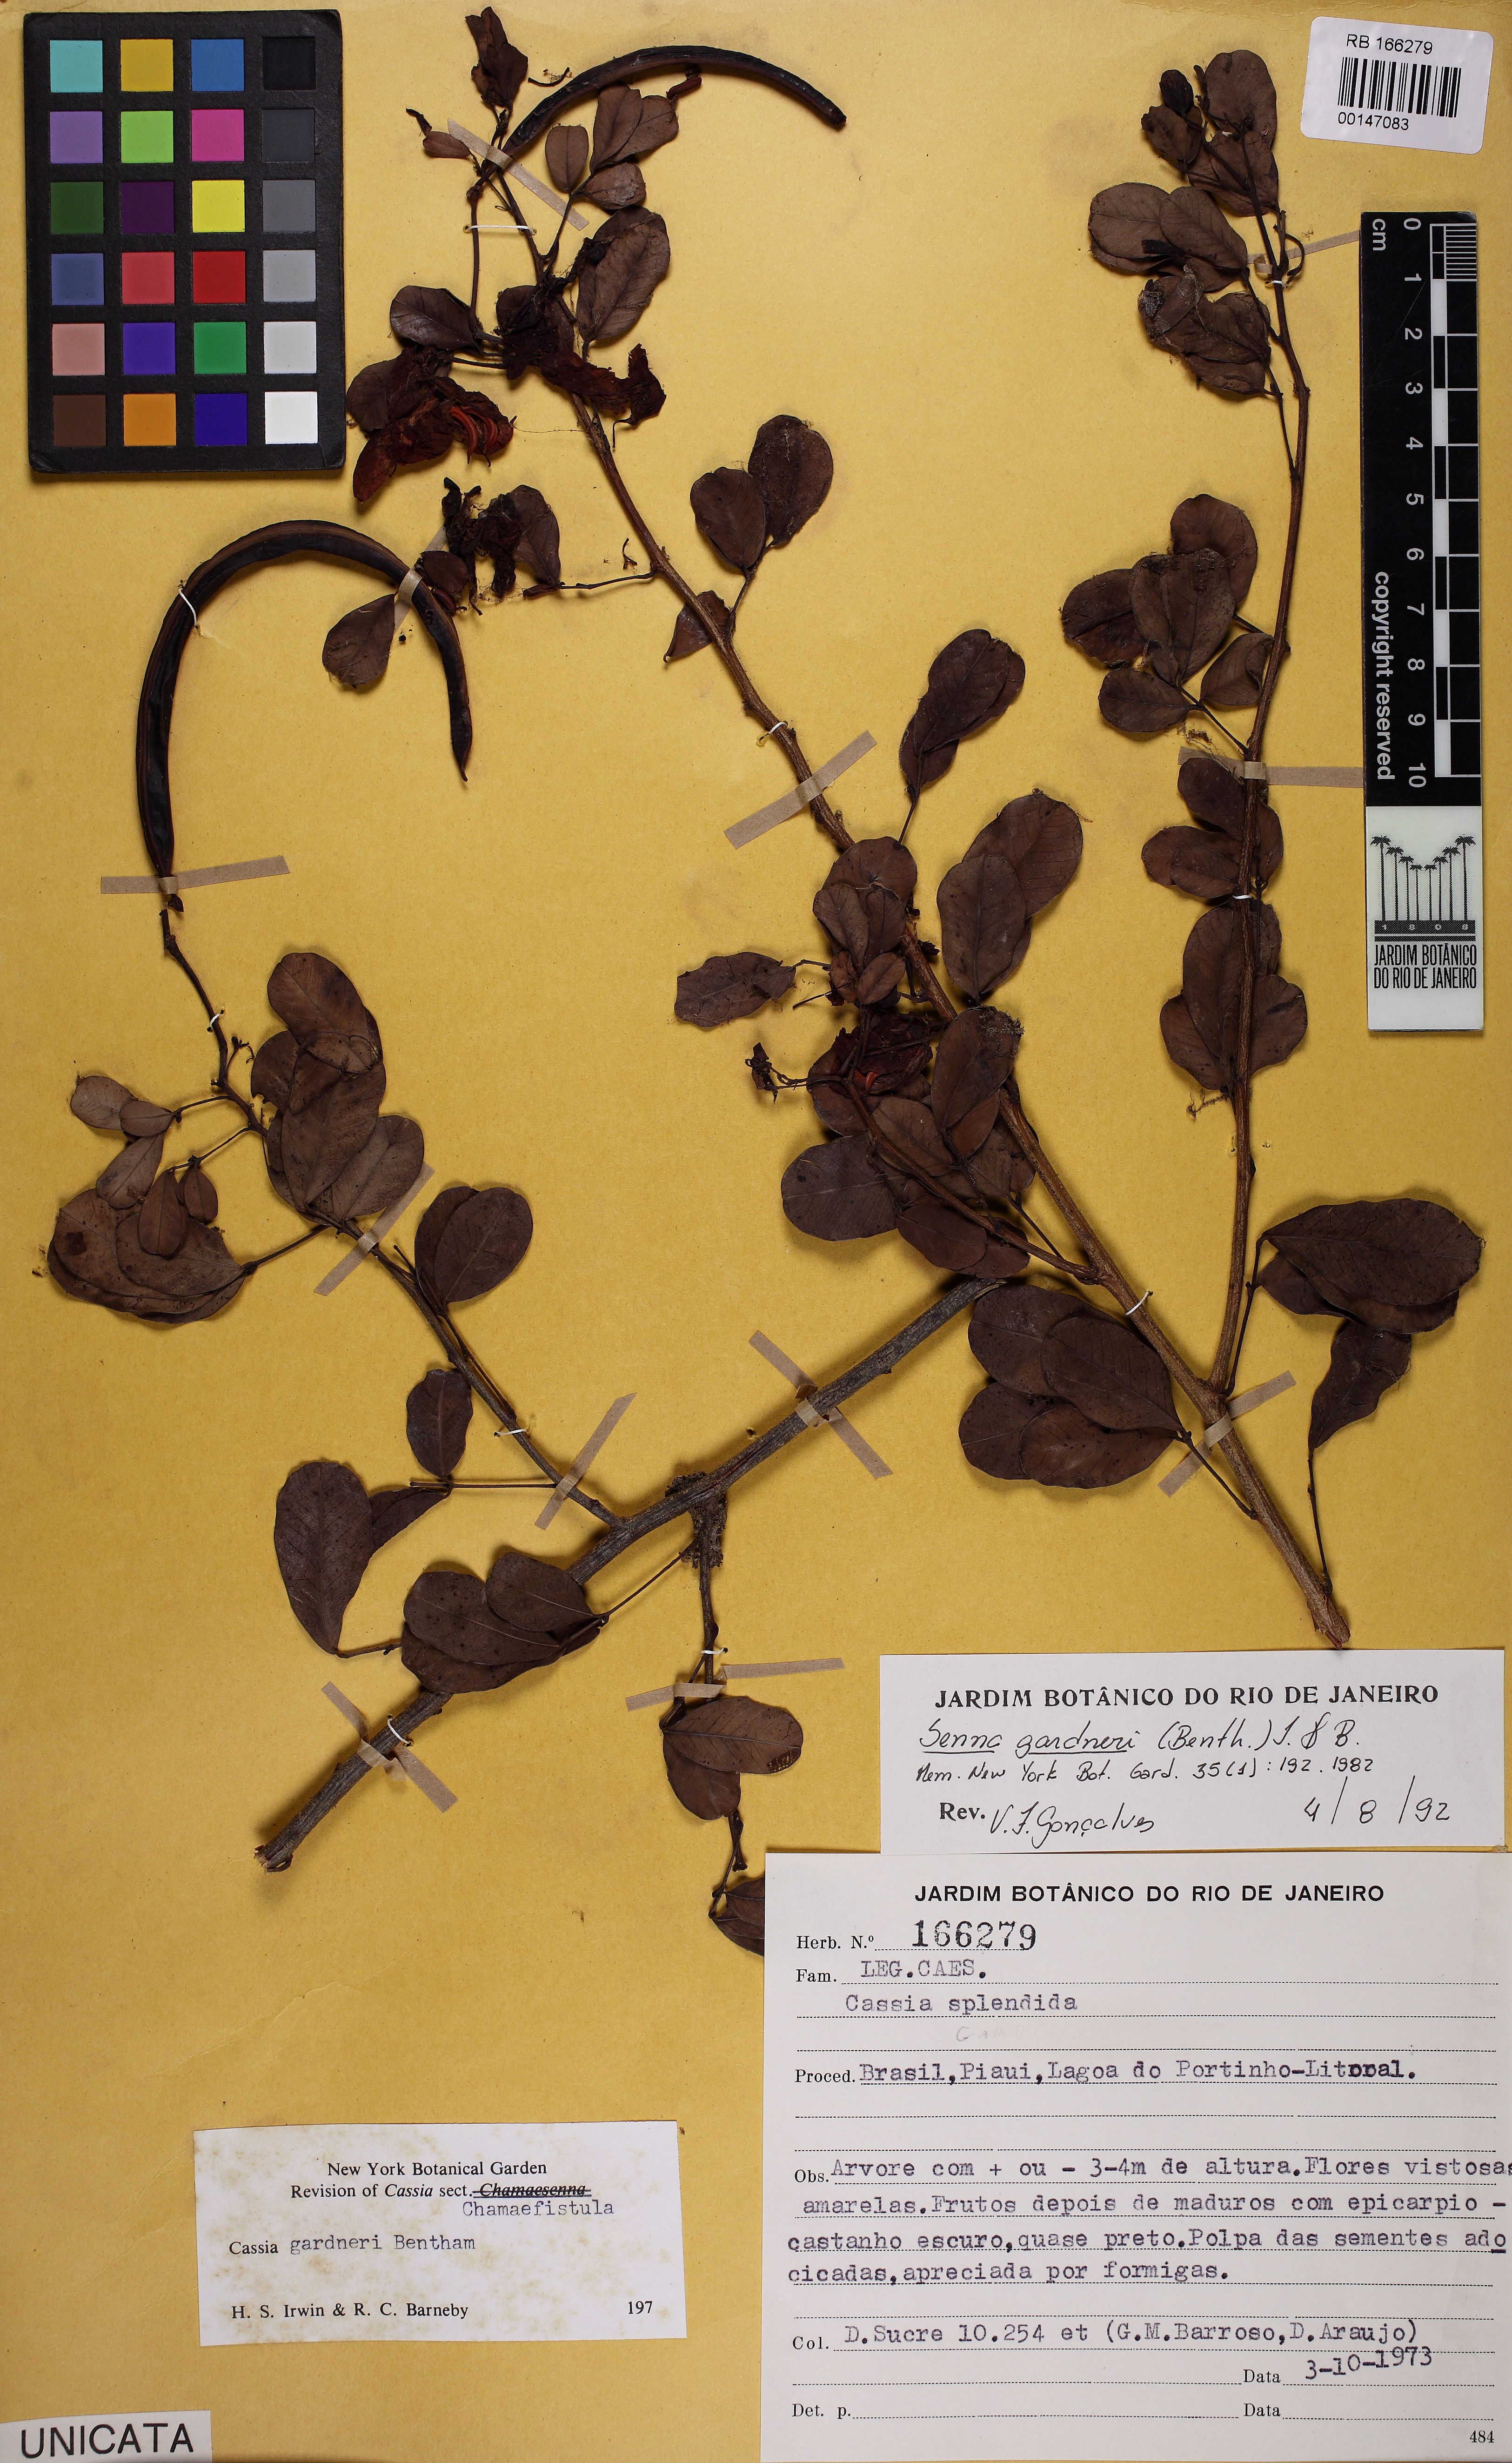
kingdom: Plantae
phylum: Tracheophyta
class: Magnoliopsida
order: Fabales
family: Fabaceae
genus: Senna
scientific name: Senna gardneri
